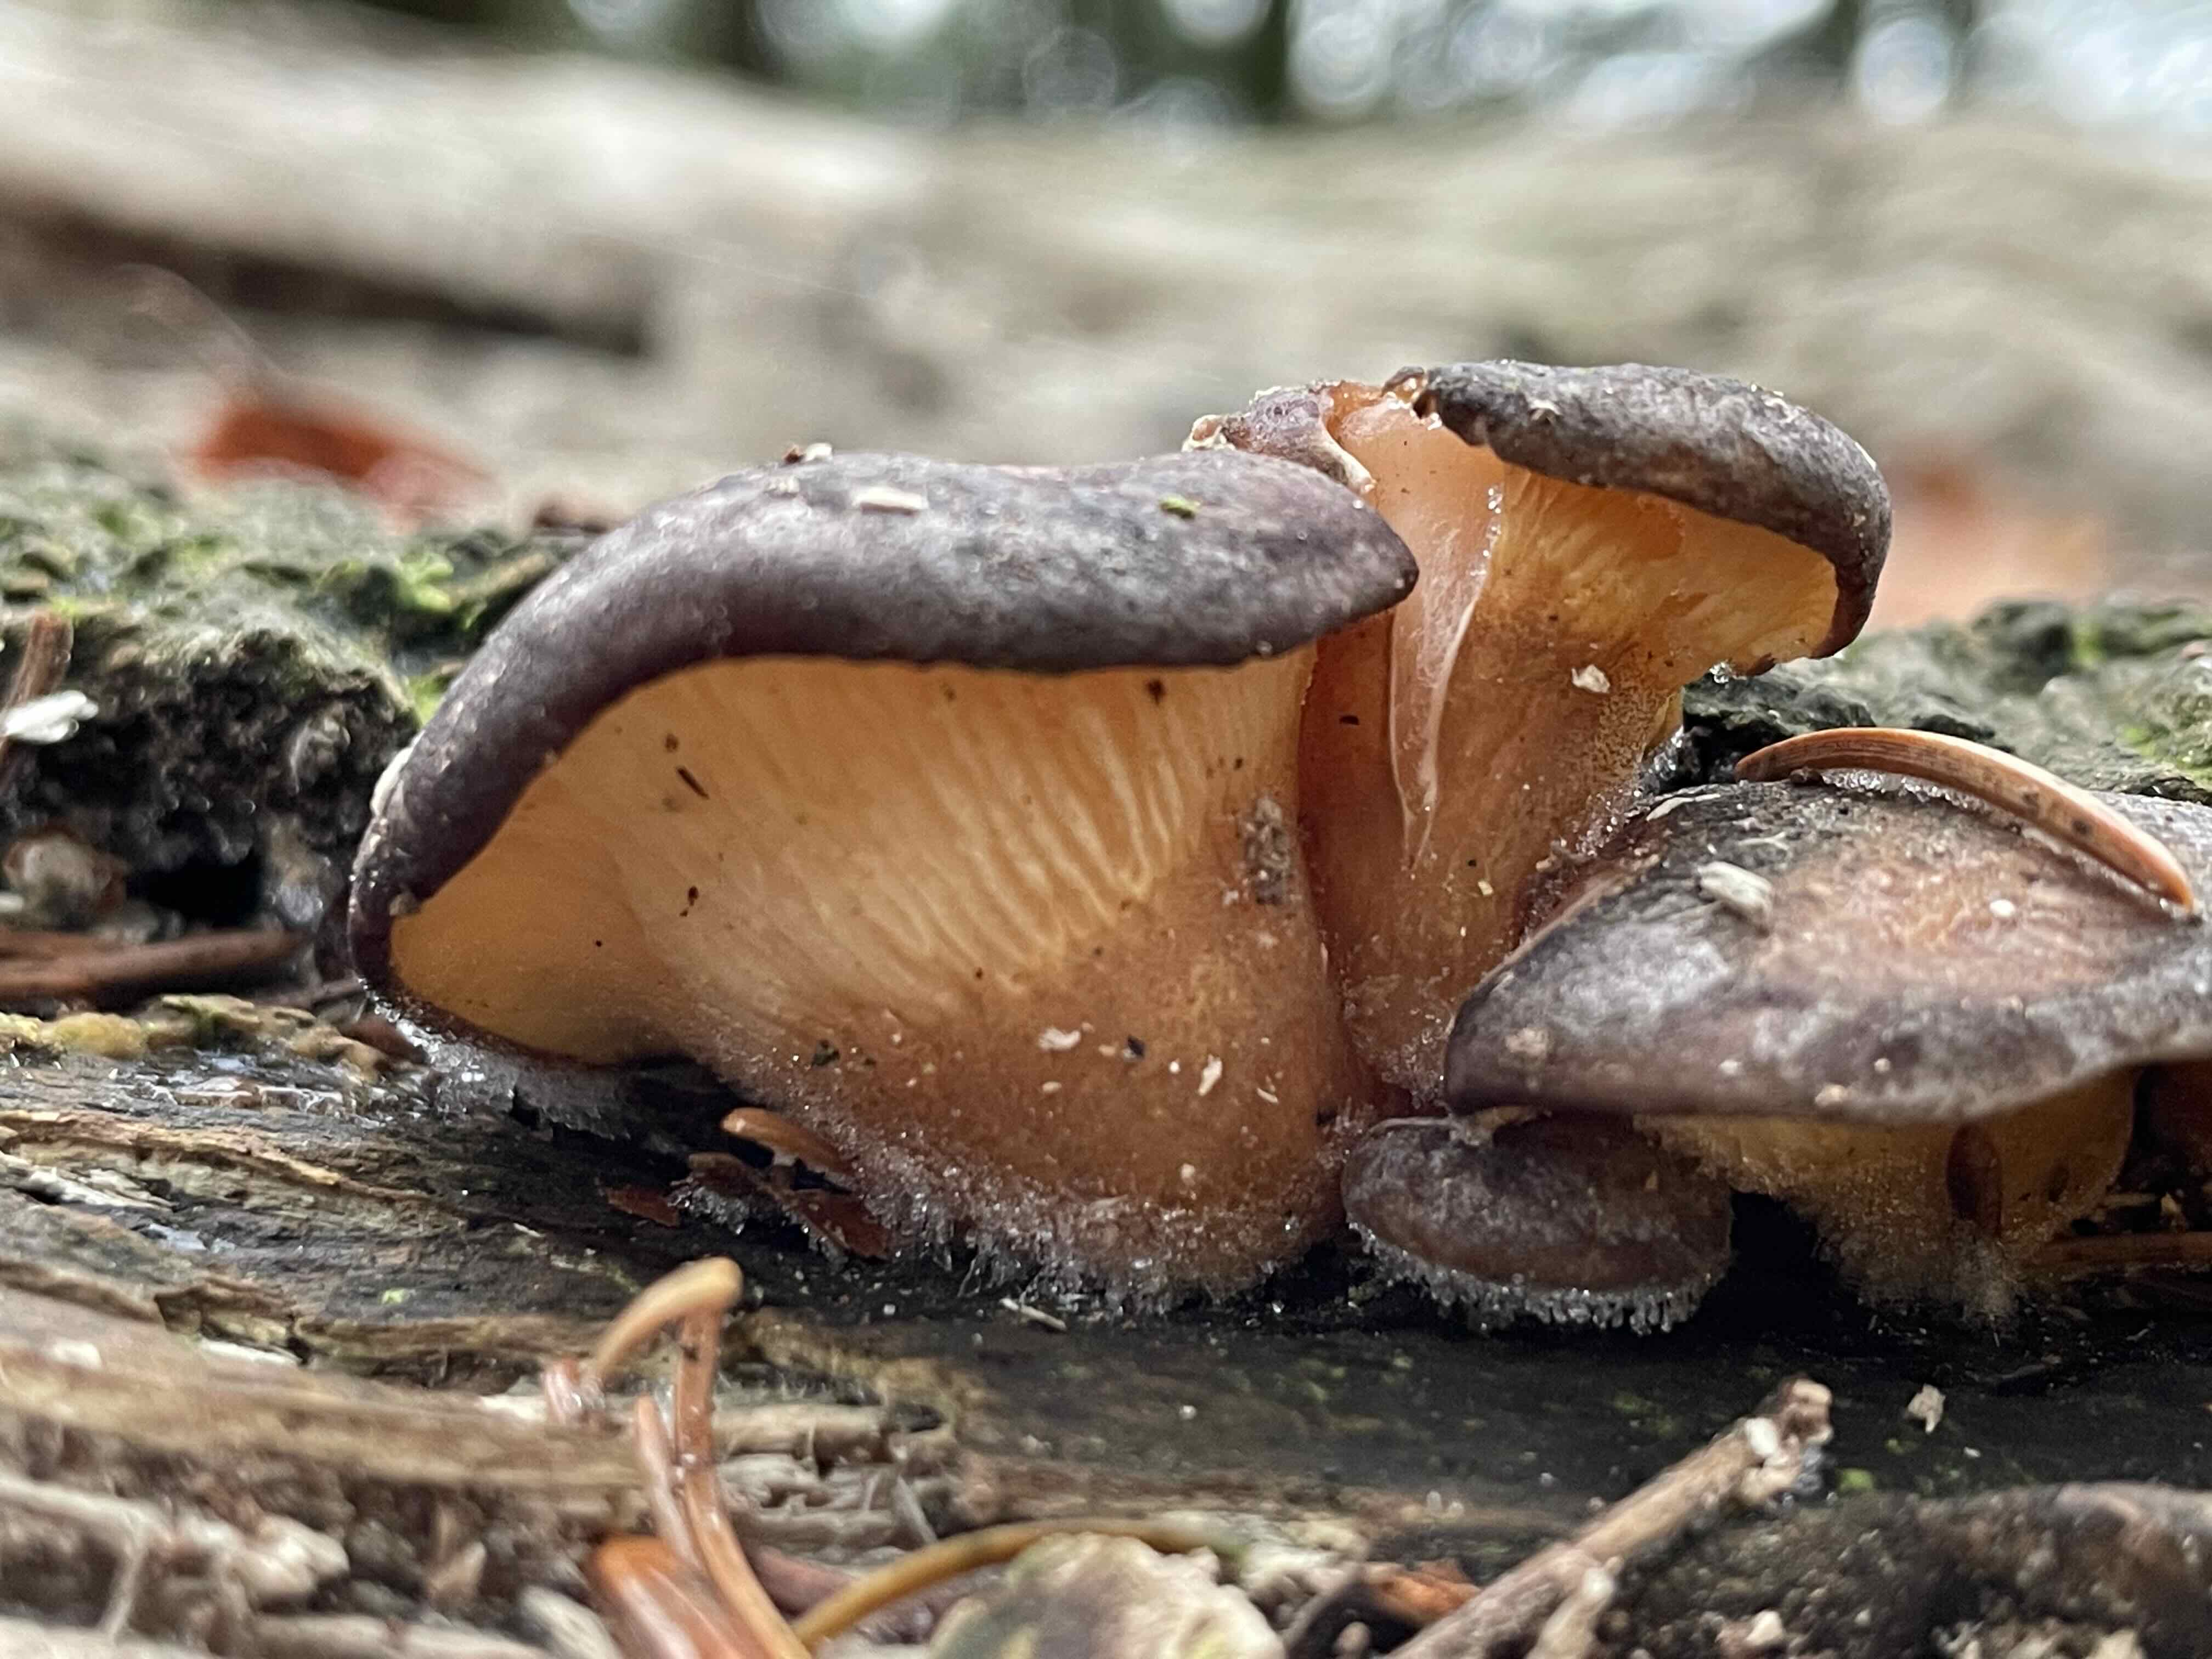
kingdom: Fungi
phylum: Basidiomycota
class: Agaricomycetes
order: Agaricales
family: Sarcomyxaceae
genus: Sarcomyxa
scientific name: Sarcomyxa serotina
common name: gummihat
